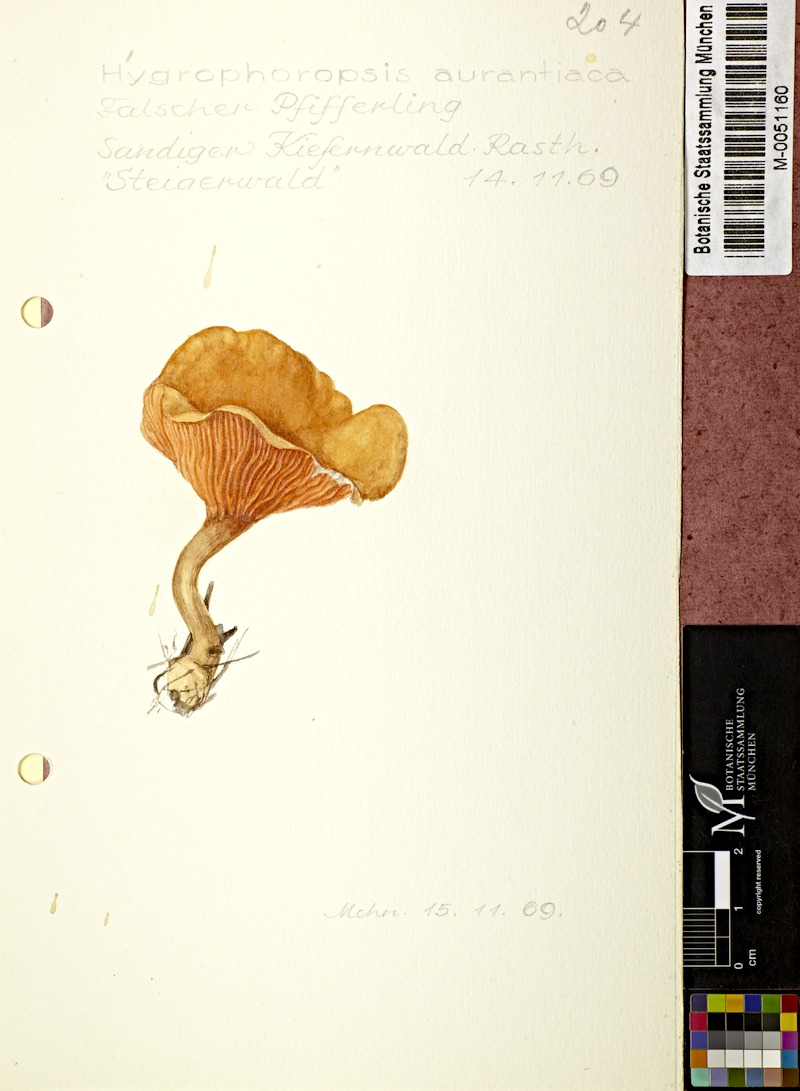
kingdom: Fungi
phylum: Basidiomycota
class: Agaricomycetes
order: Boletales
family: Hygrophoropsidaceae
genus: Hygrophoropsis
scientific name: Hygrophoropsis aurantiaca
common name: False chanterelle
